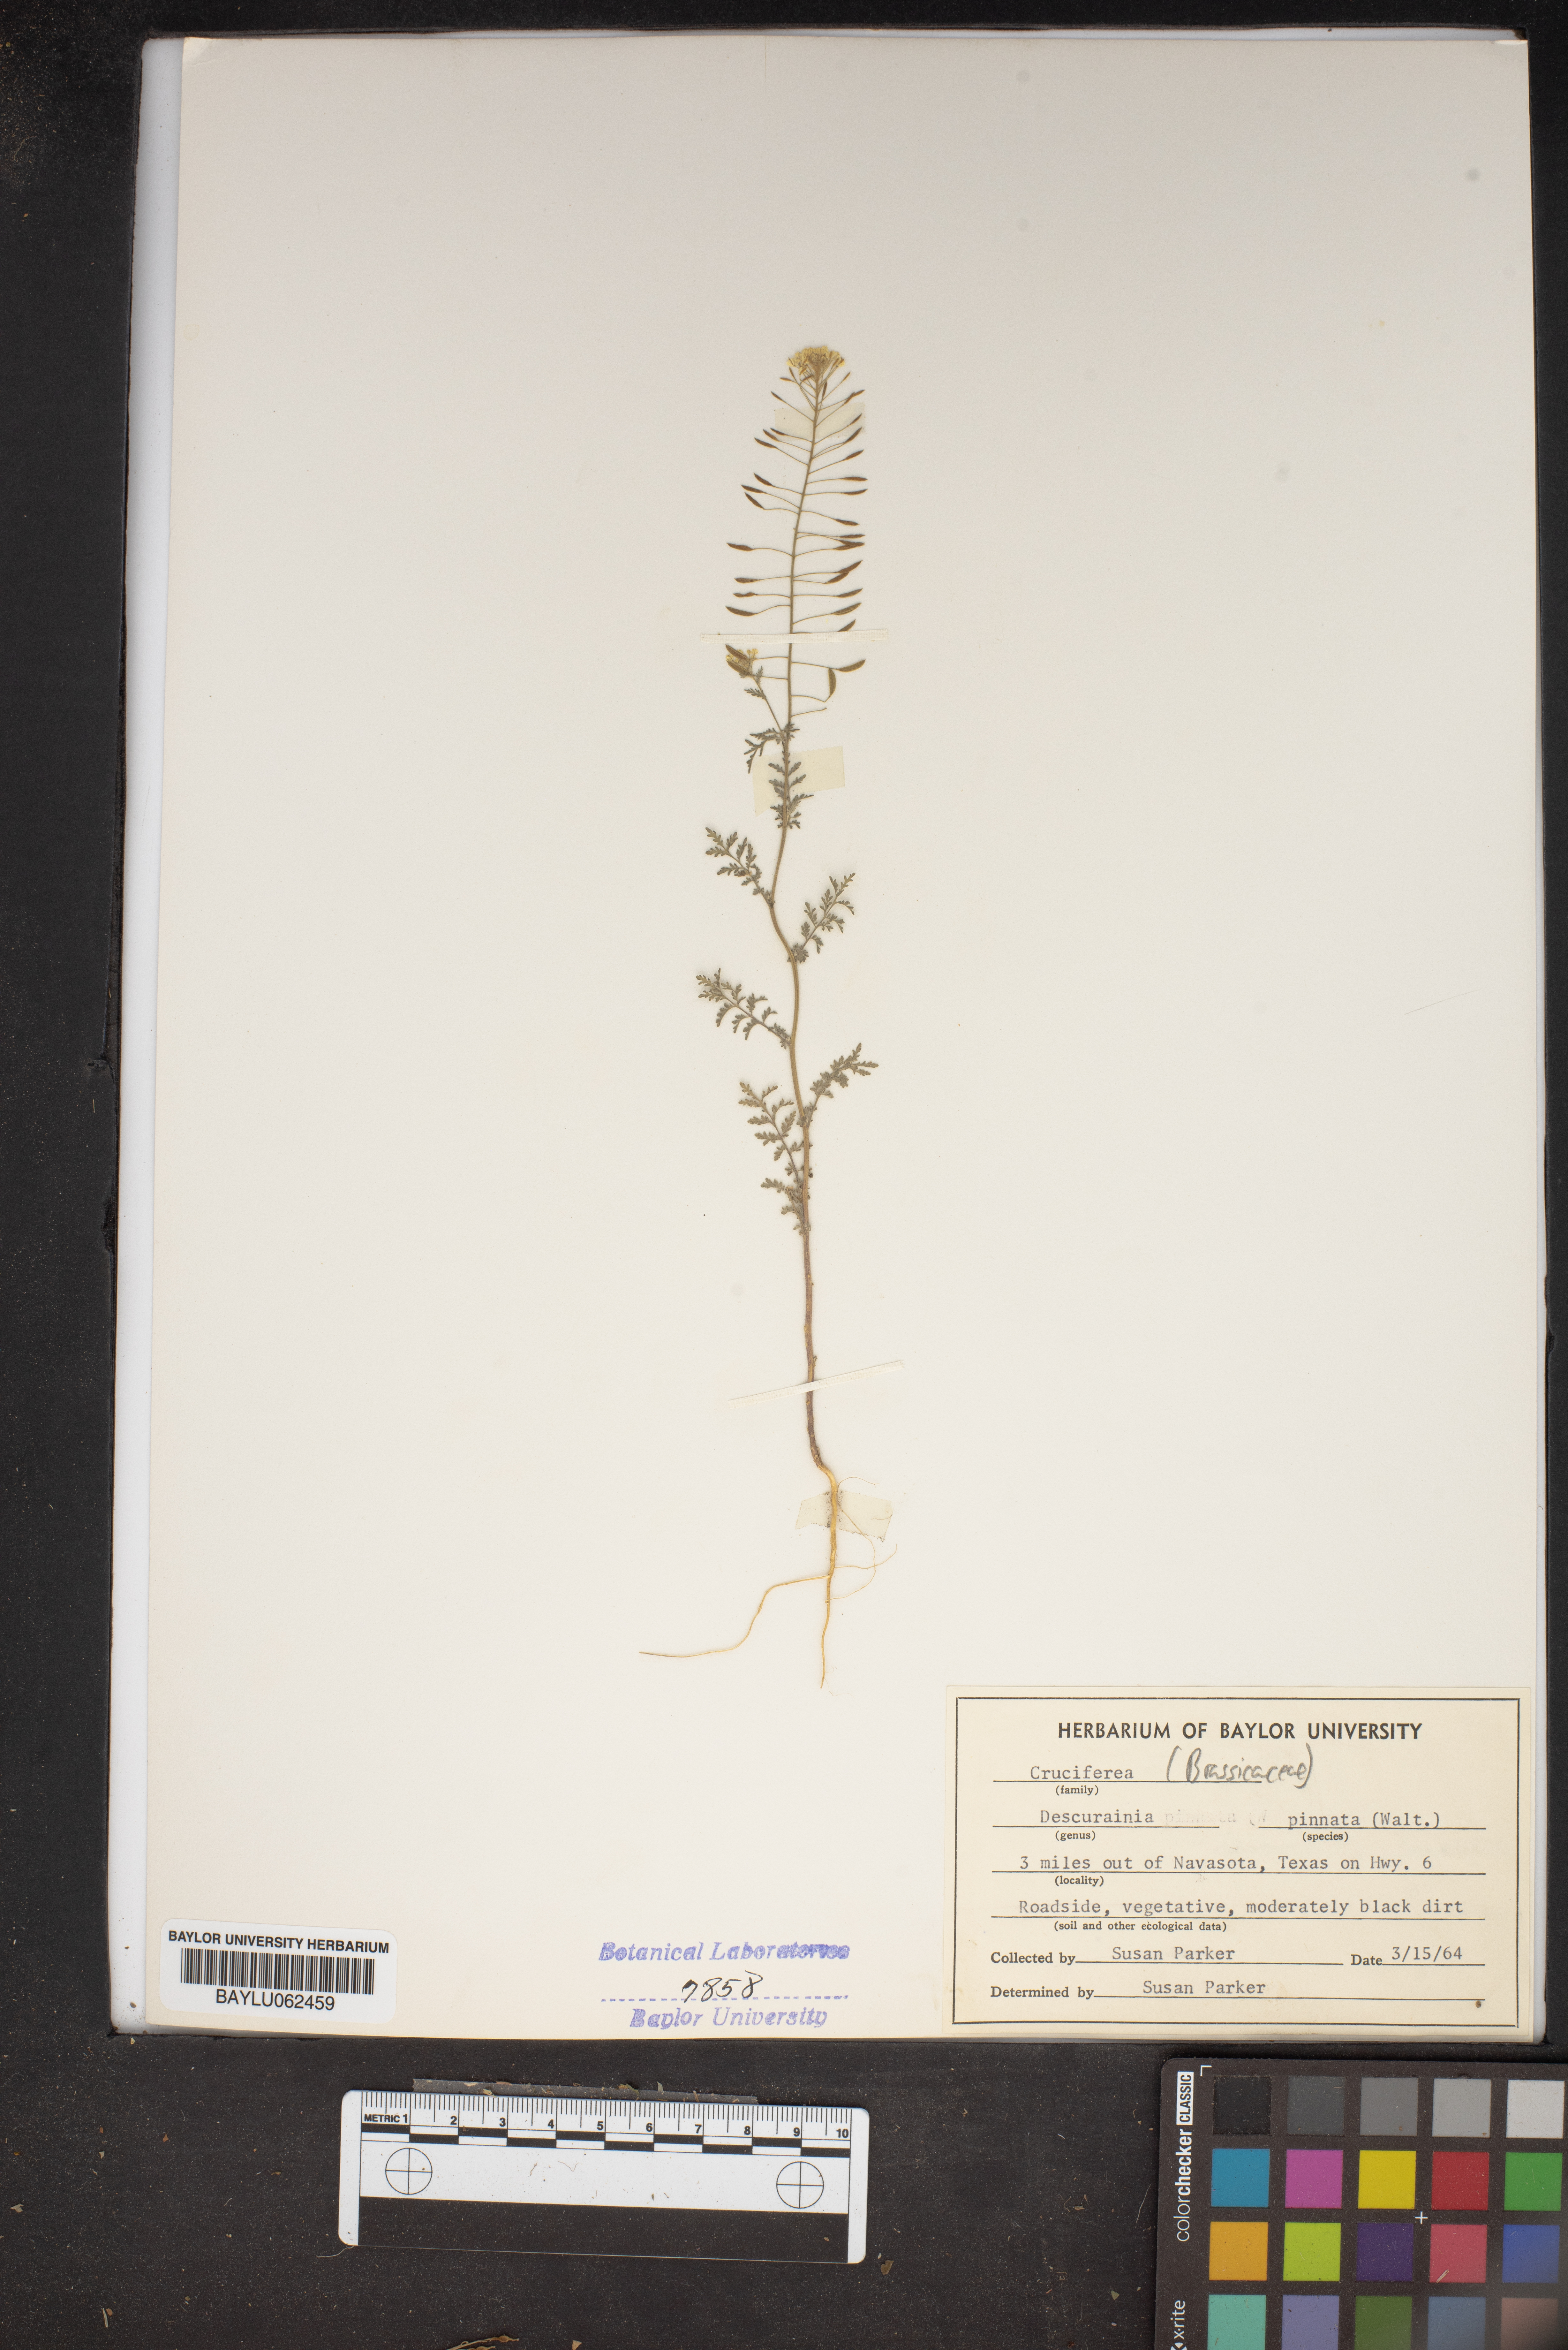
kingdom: Plantae
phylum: Tracheophyta
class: Magnoliopsida
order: Brassicales
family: Brassicaceae
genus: Descurainia
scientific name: Descurainia pinnata
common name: Western tansy mustard
